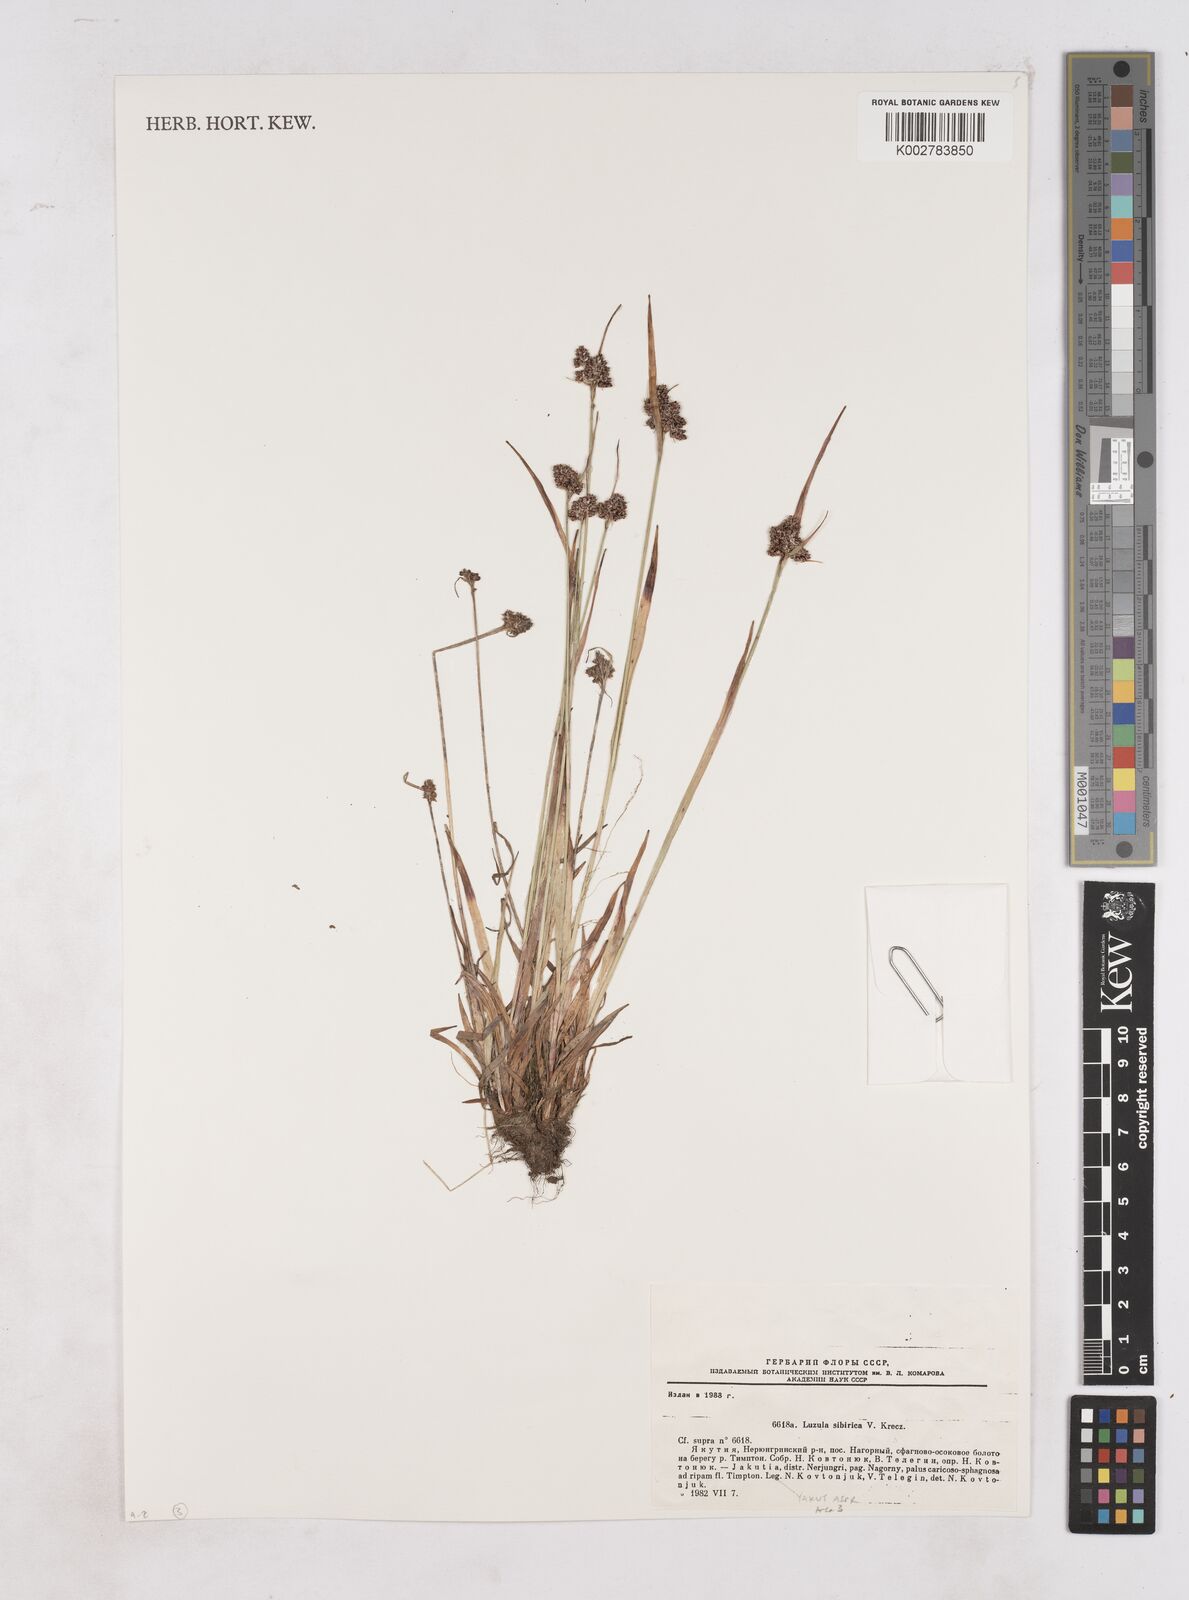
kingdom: Plantae
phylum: Tracheophyta
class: Liliopsida
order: Poales
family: Juncaceae
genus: Luzula
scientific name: Luzula multiflora
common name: Heath wood-rush
